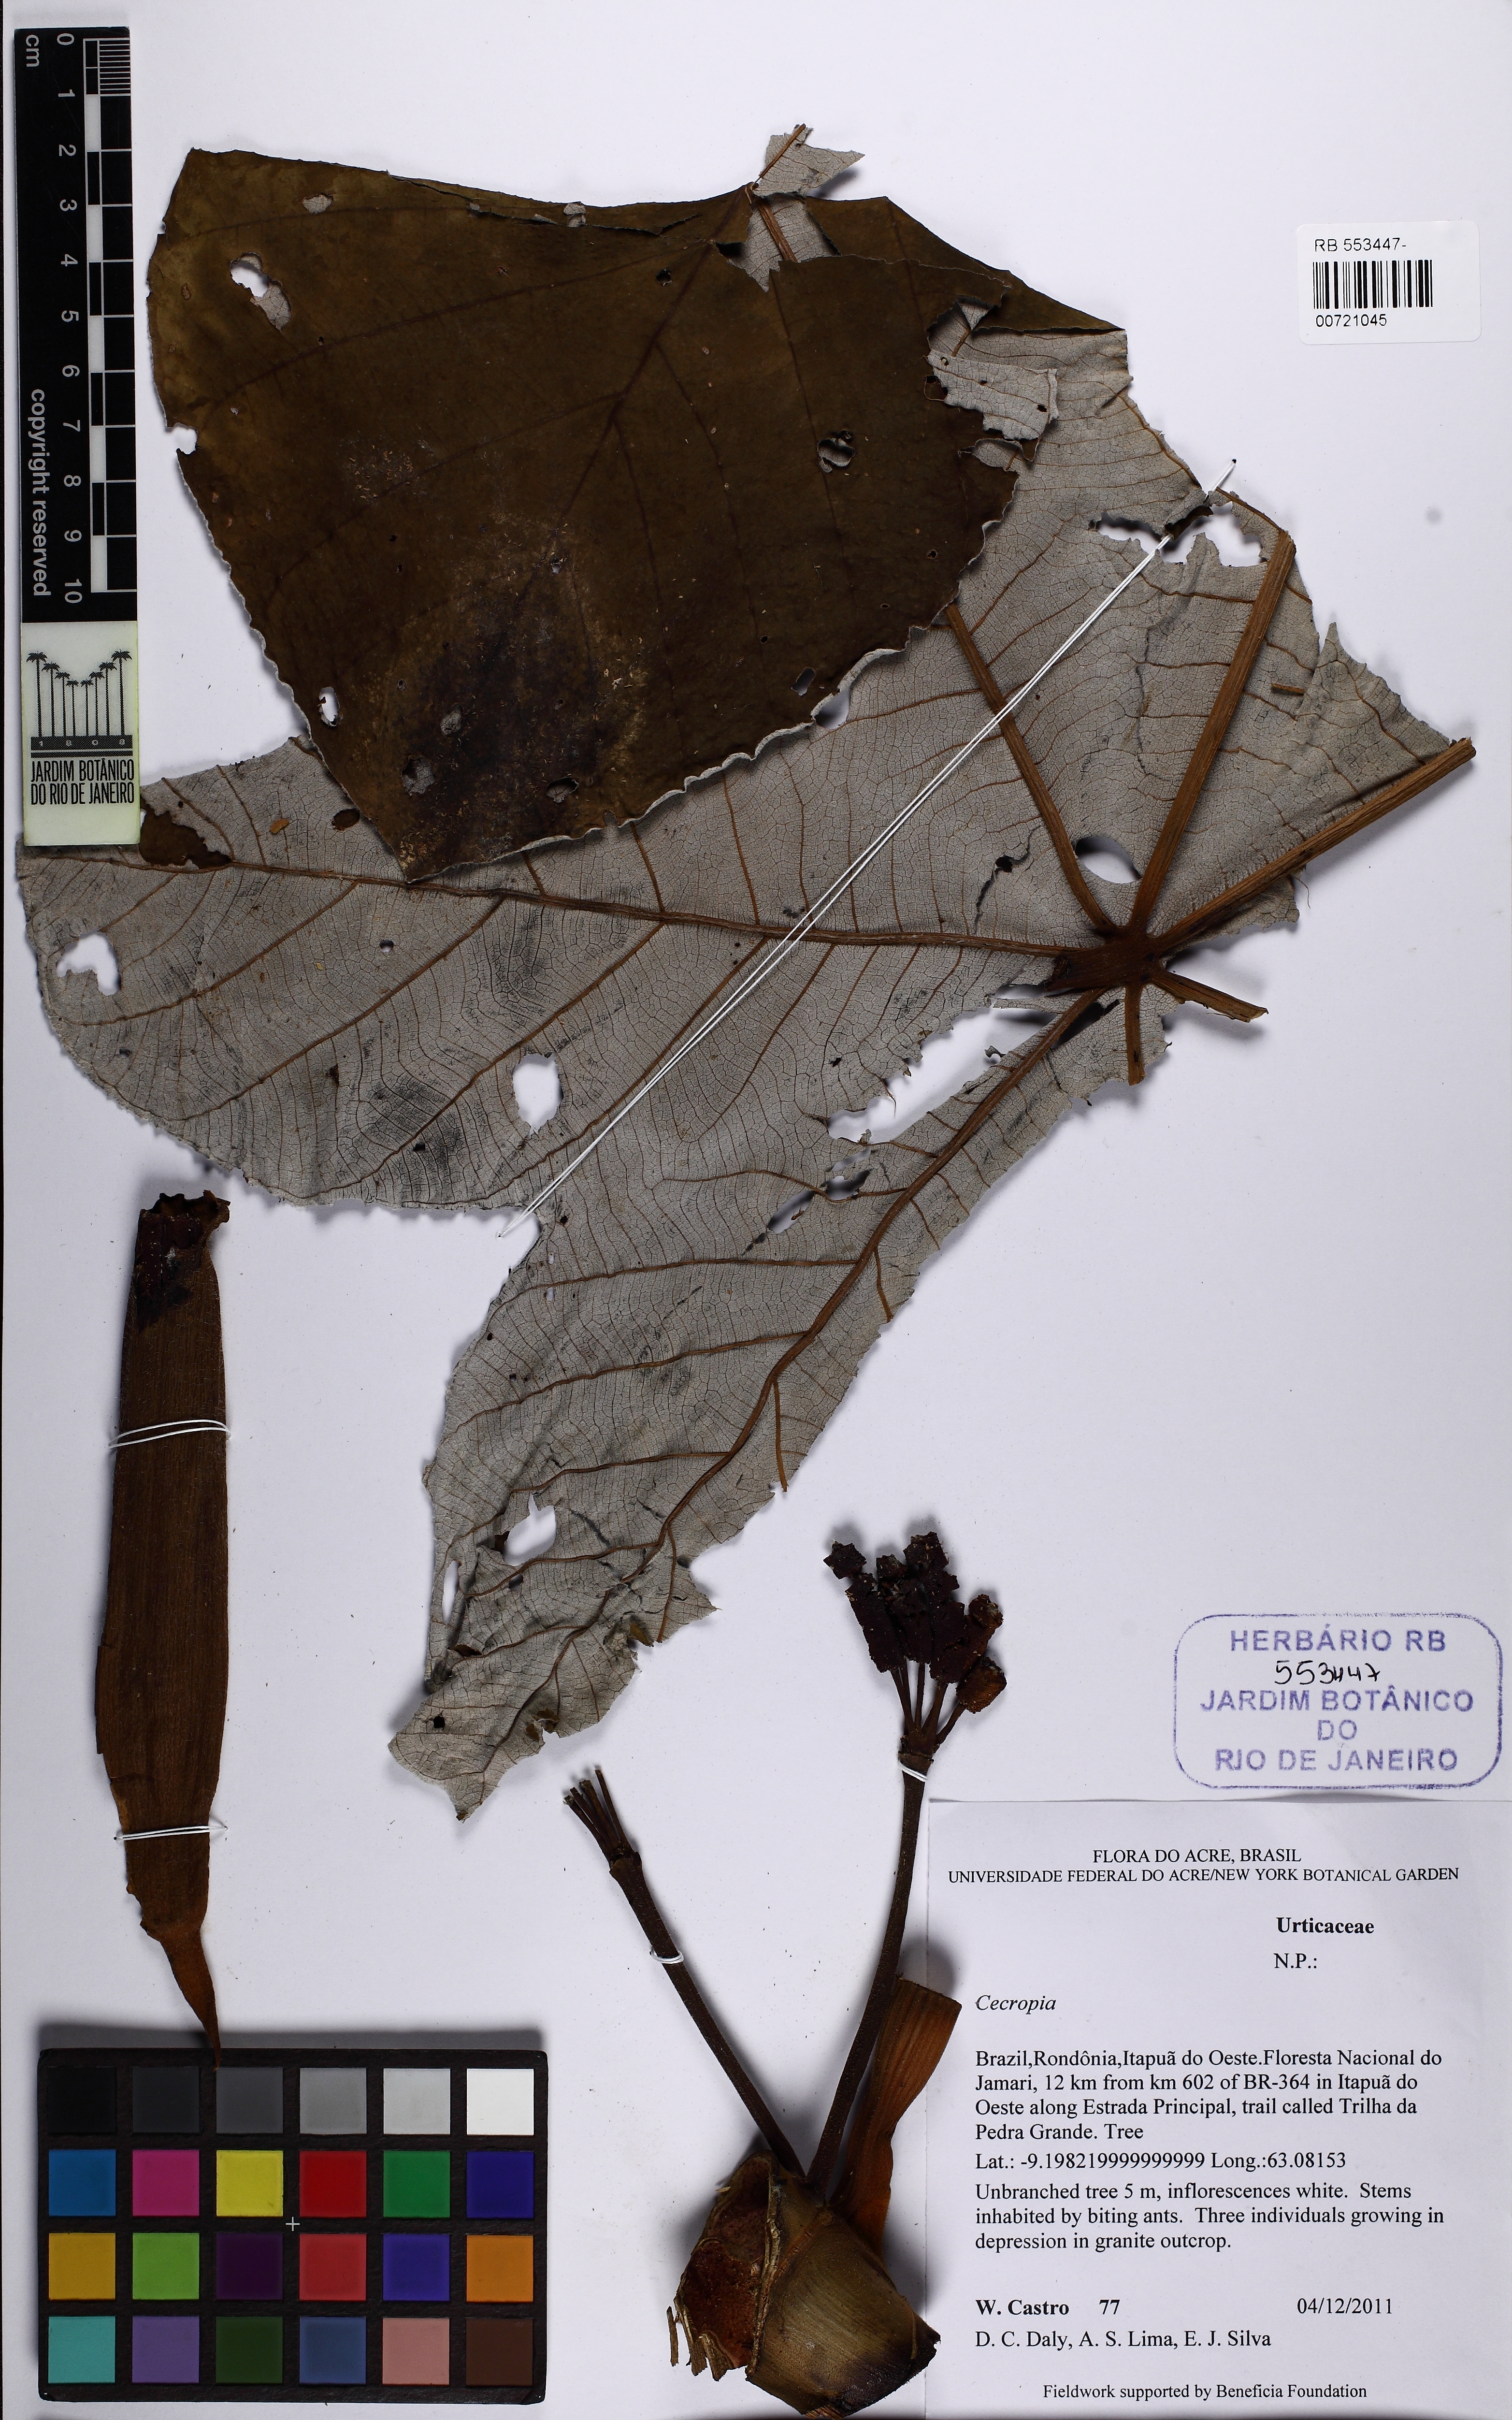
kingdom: Plantae
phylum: Tracheophyta
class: Magnoliopsida
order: Rosales
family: Urticaceae
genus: Cecropia
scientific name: Cecropia
